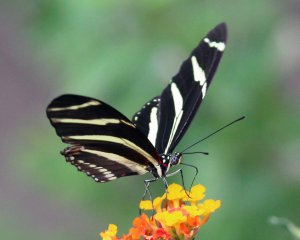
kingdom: Animalia
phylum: Arthropoda
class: Insecta
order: Lepidoptera
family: Nymphalidae
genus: Heliconius
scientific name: Heliconius charithonia
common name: Zebra Longwing
